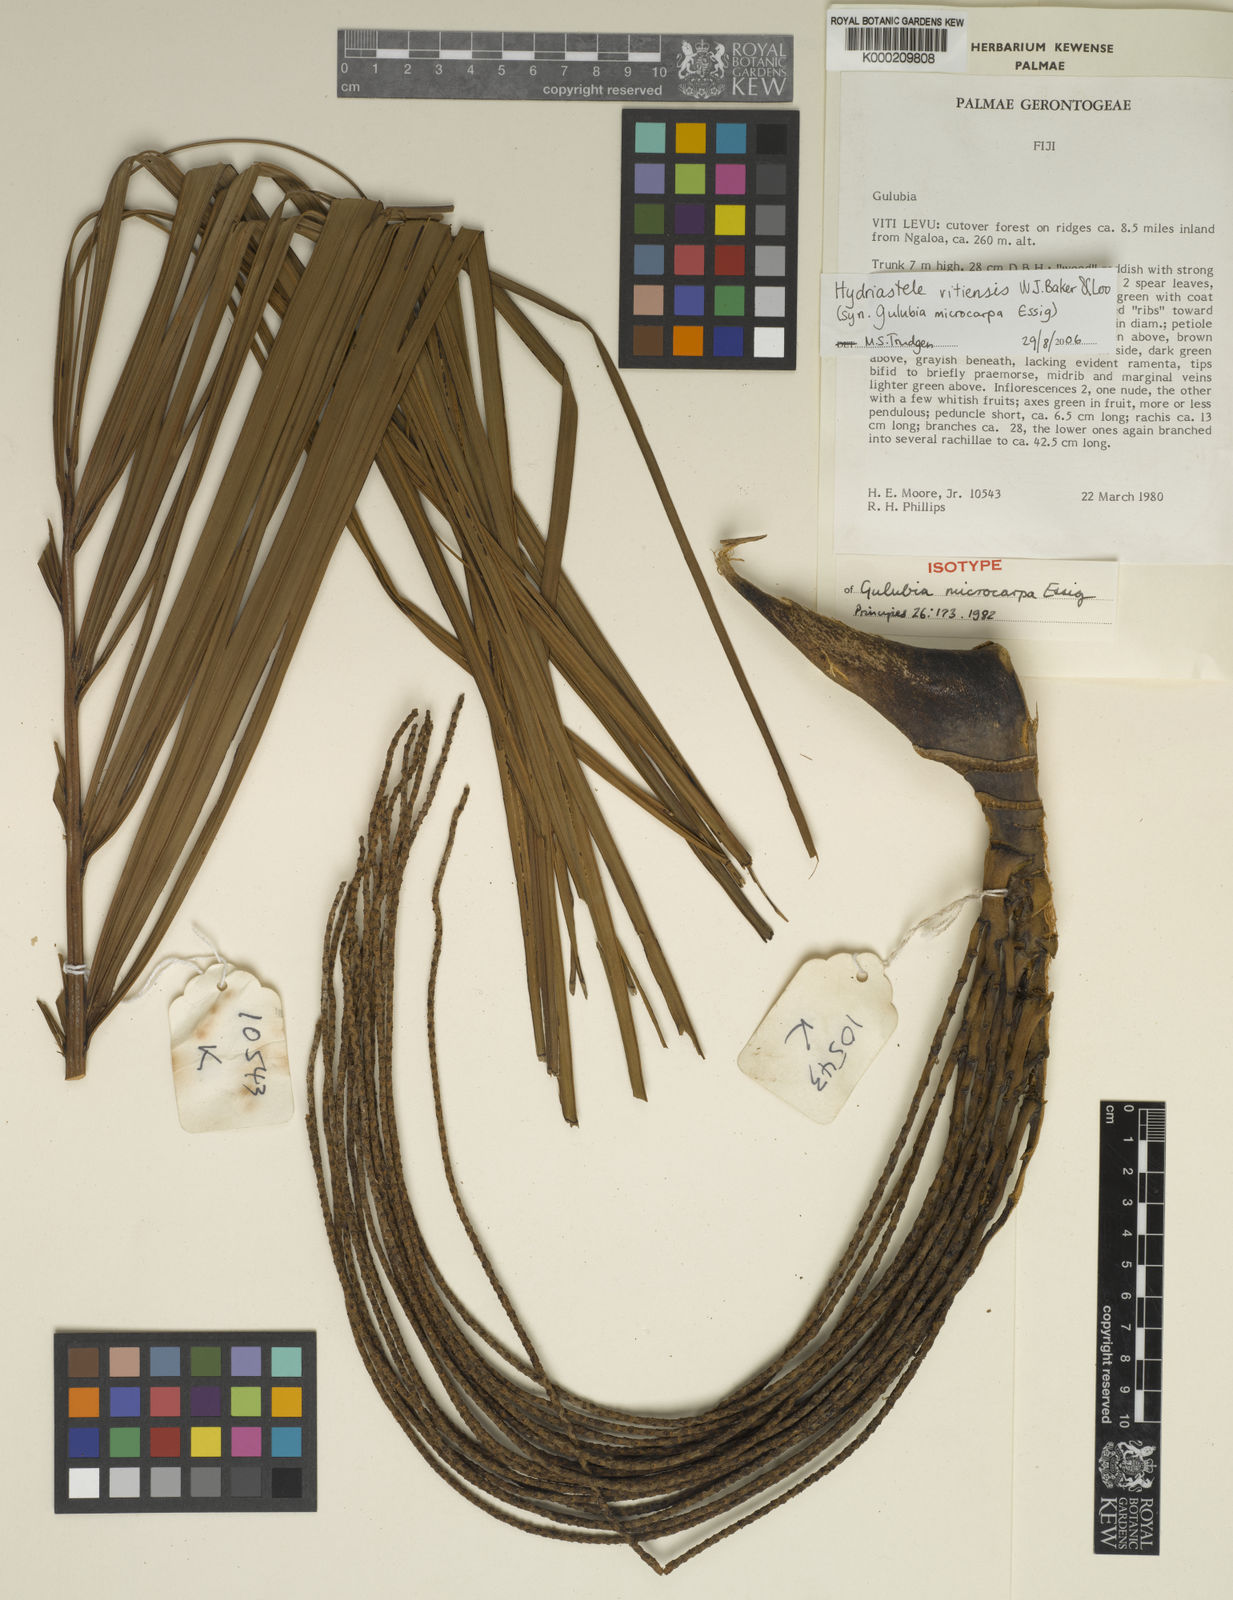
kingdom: Plantae
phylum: Tracheophyta
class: Liliopsida
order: Arecales
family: Arecaceae
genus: Hydriastele
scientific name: Hydriastele vitiensis
